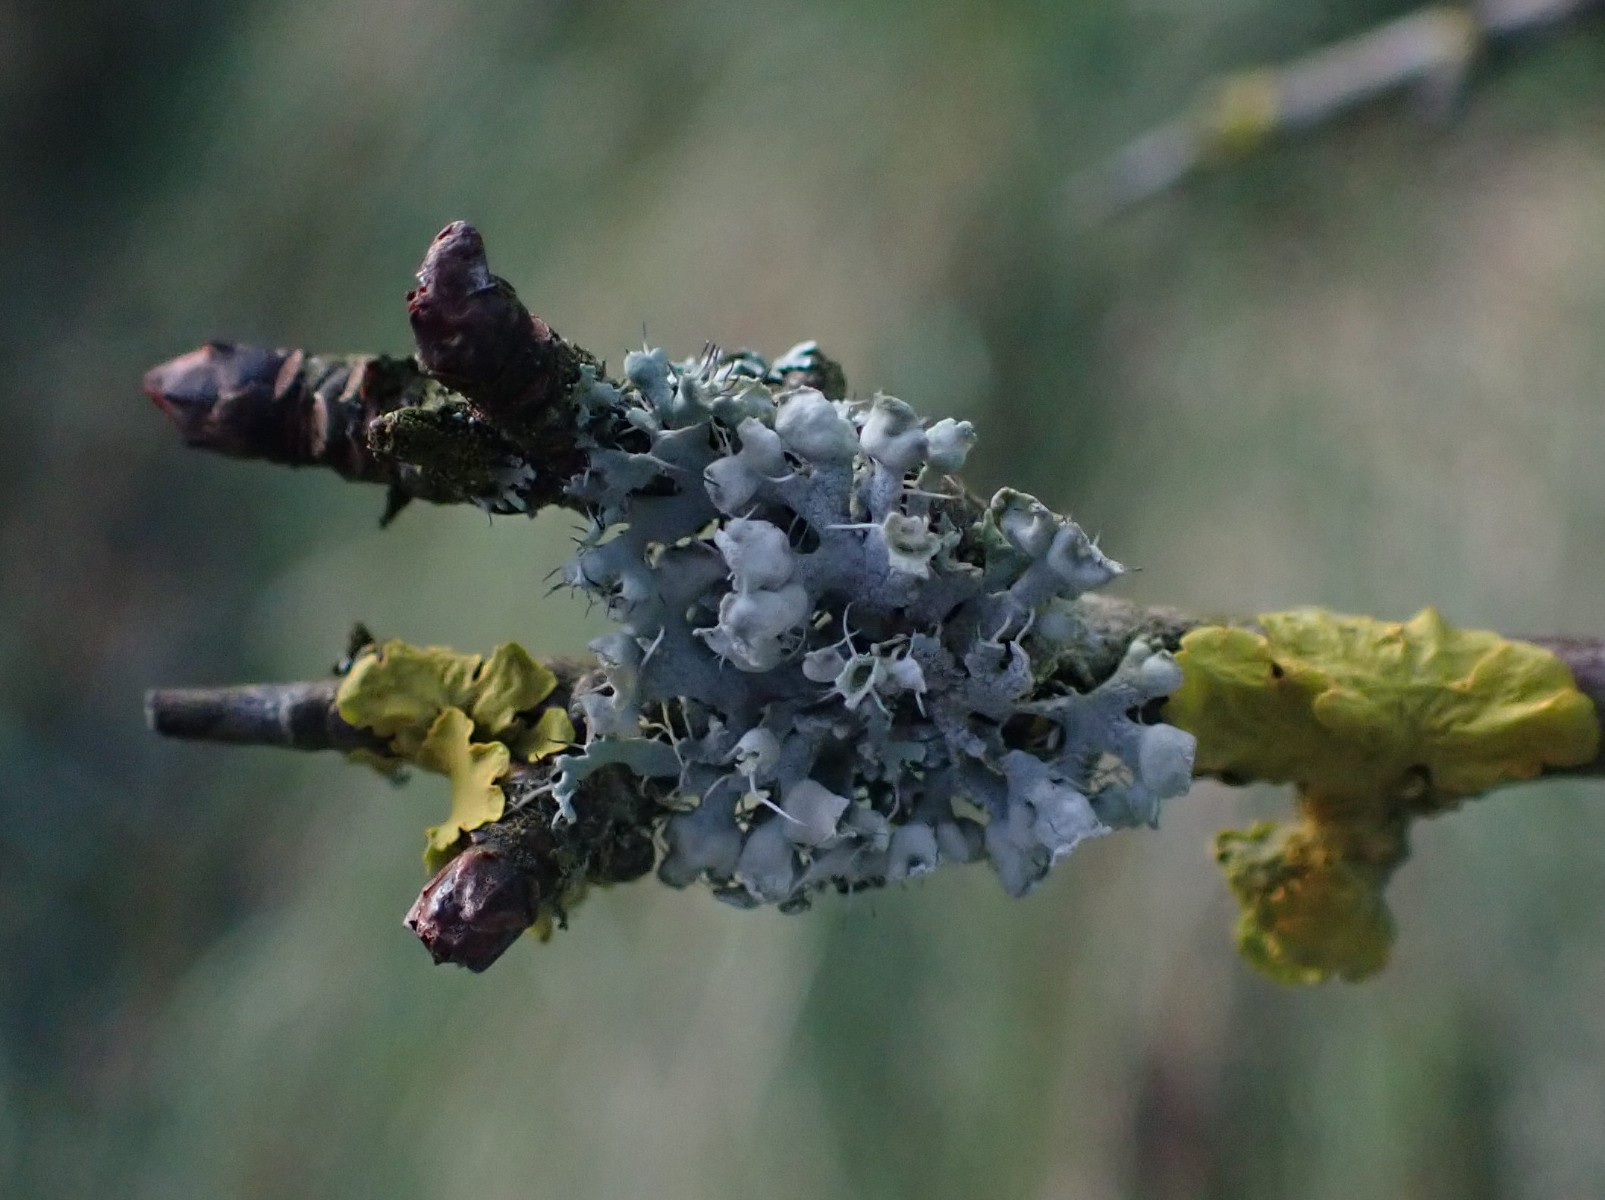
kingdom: Fungi
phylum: Ascomycota
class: Lecanoromycetes
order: Caliciales
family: Physciaceae
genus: Physcia
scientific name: Physcia adscendens
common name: hætte-rosetlav
